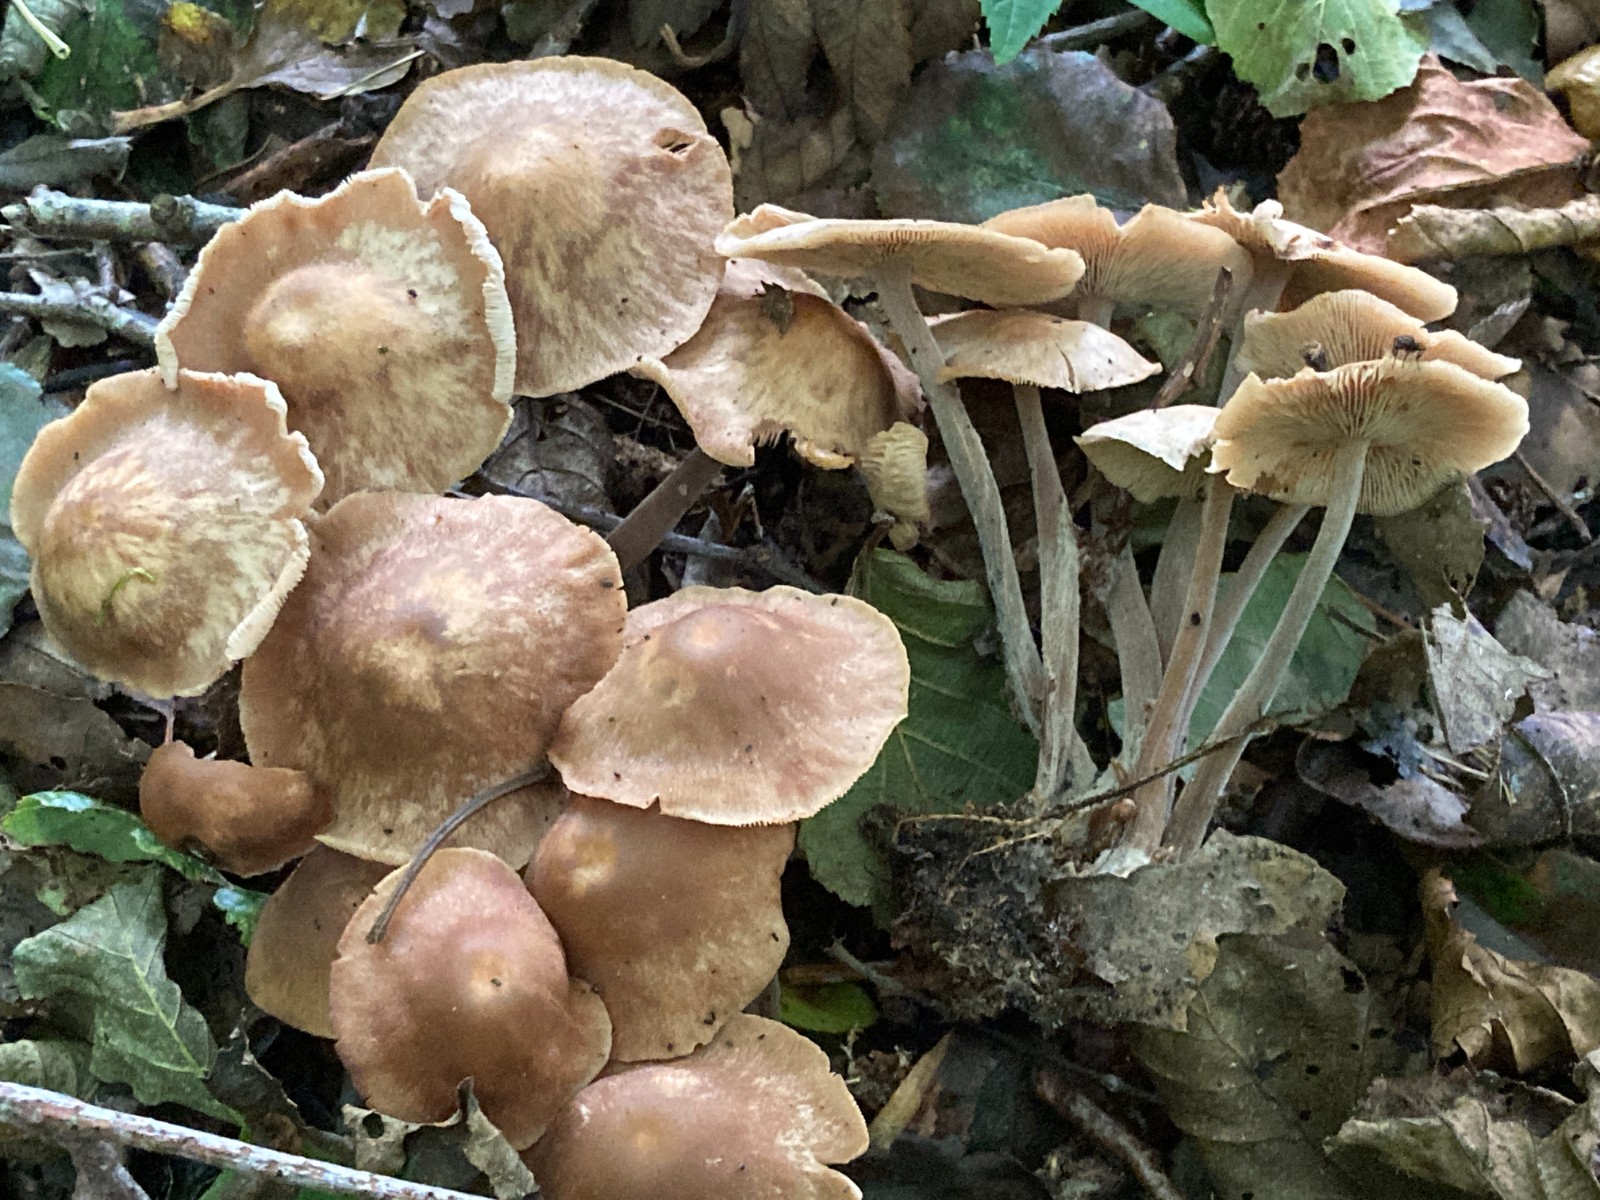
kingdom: Fungi
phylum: Basidiomycota
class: Agaricomycetes
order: Agaricales
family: Omphalotaceae
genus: Collybiopsis
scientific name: Collybiopsis confluens
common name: knippe-fladhat
